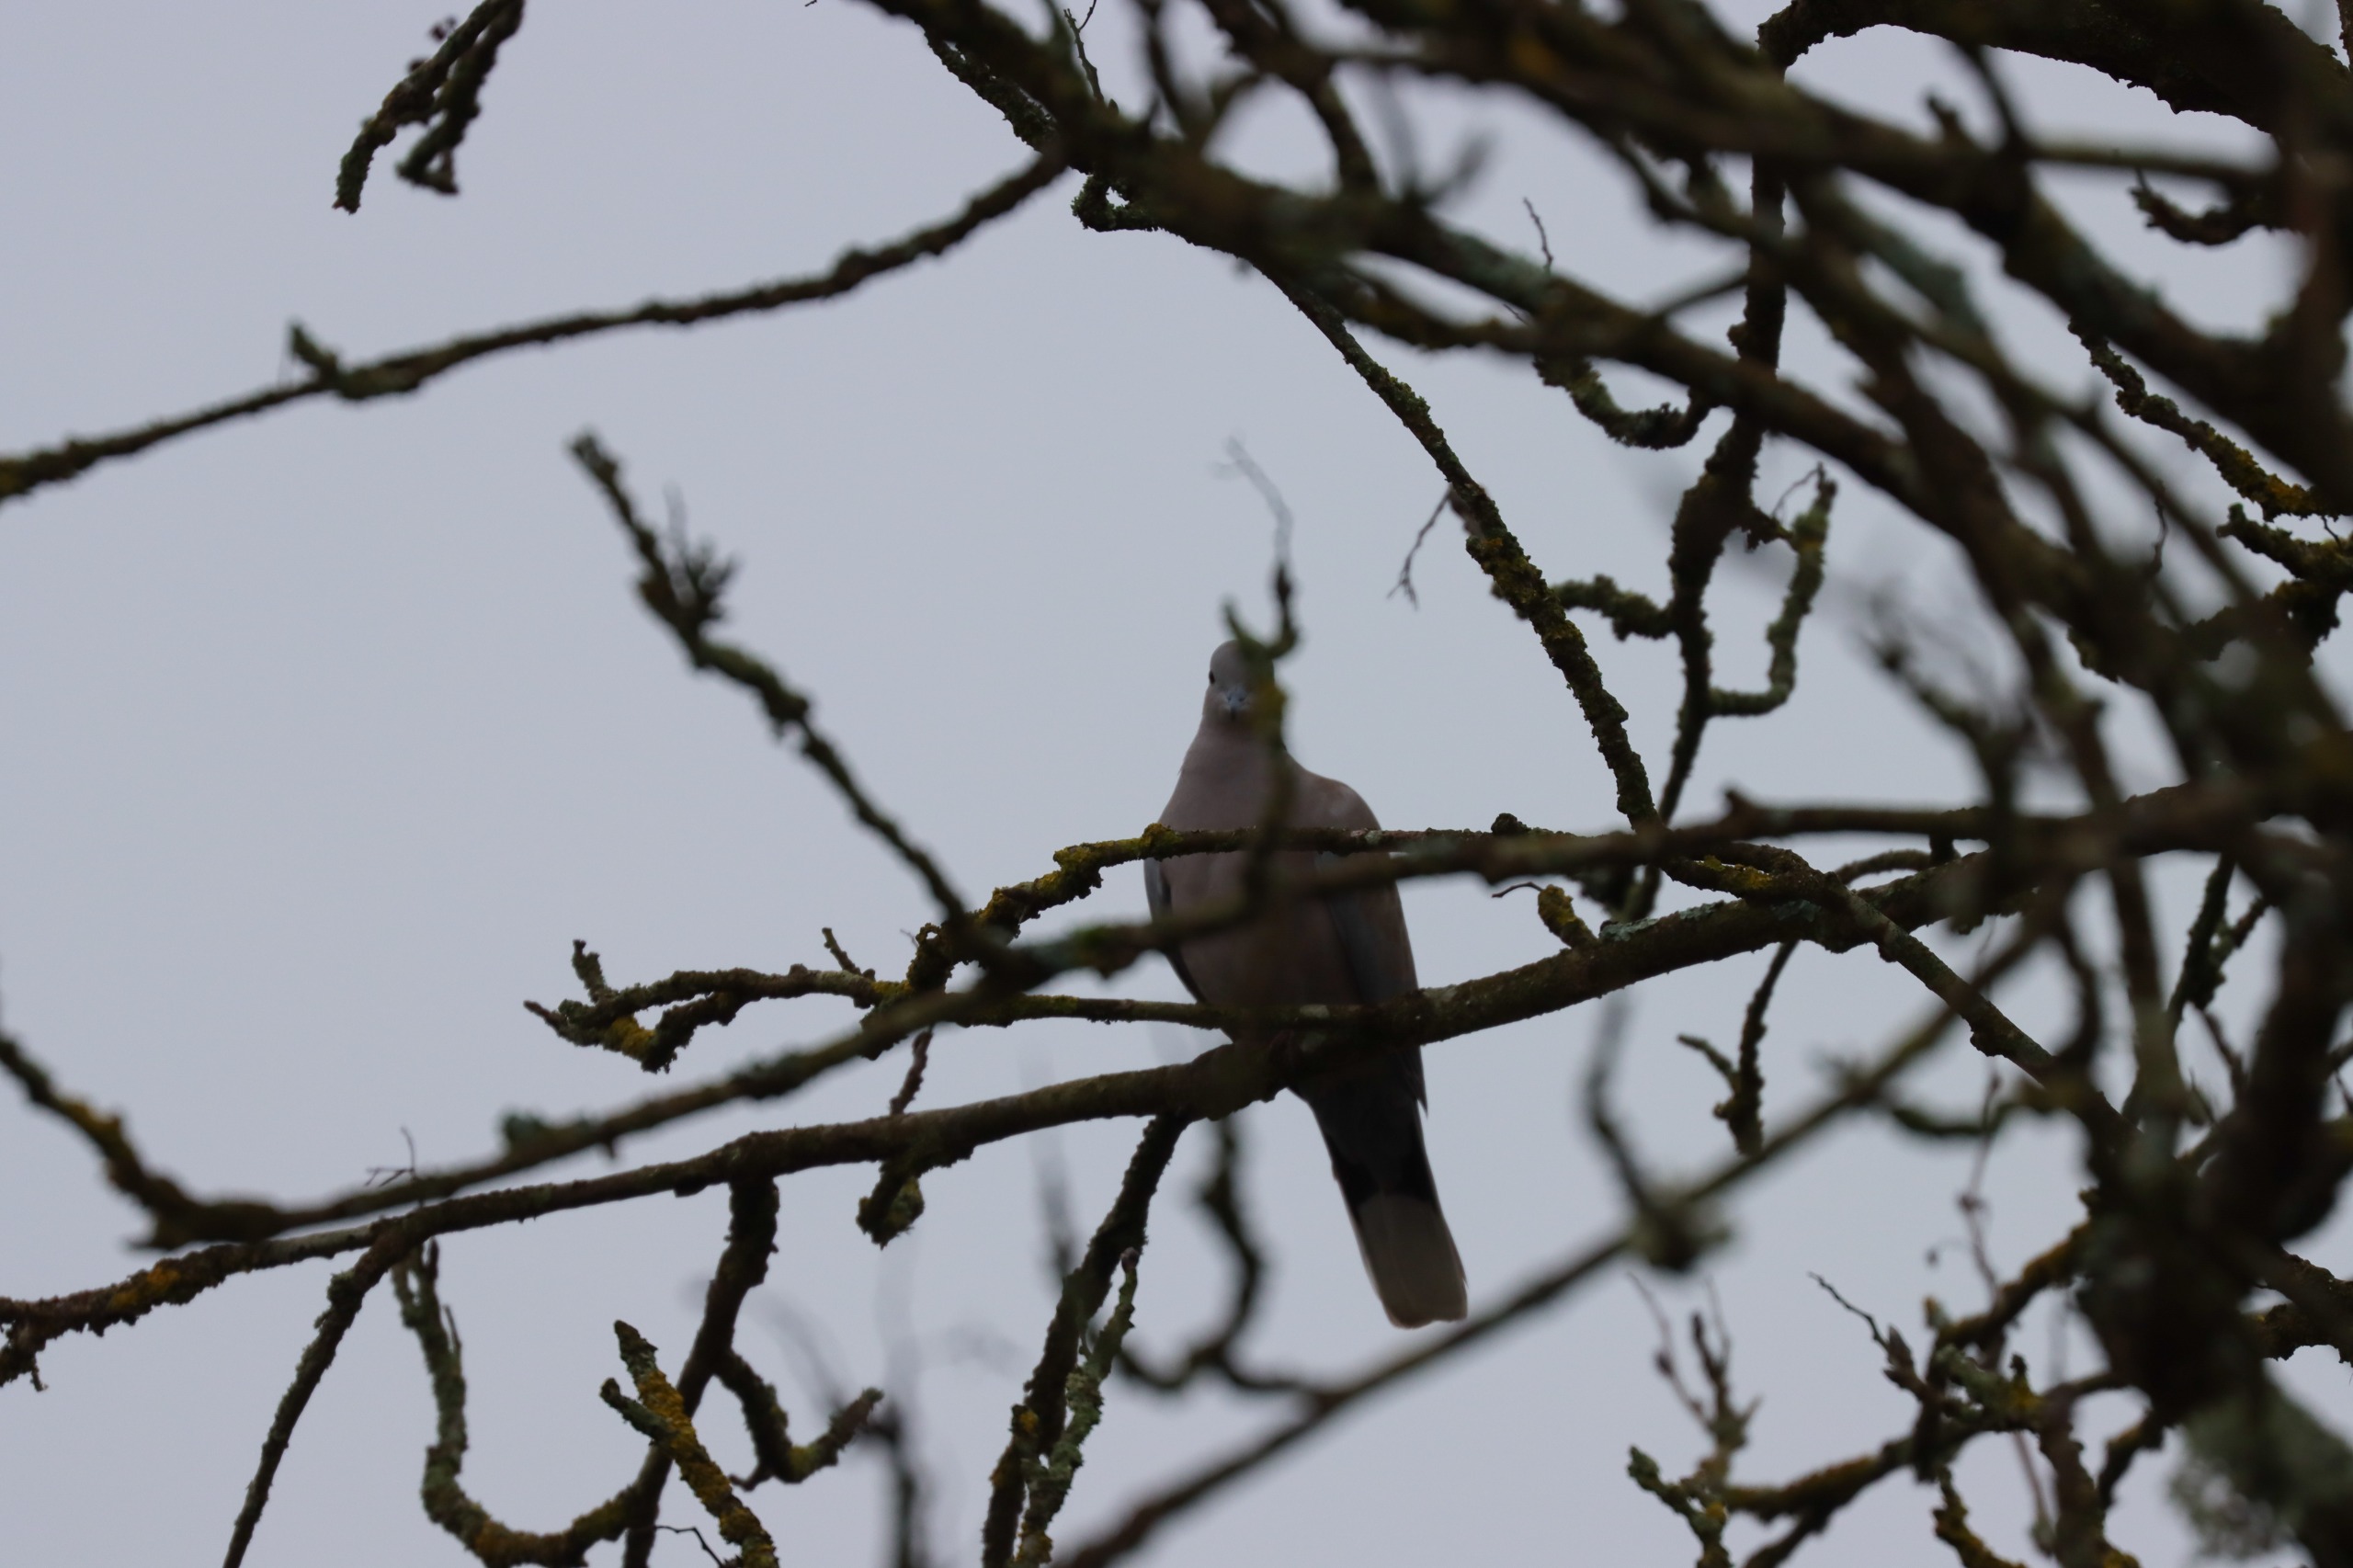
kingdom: Animalia
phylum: Chordata
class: Aves
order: Columbiformes
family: Columbidae
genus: Streptopelia
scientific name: Streptopelia decaocto
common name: Tyrkerdue
